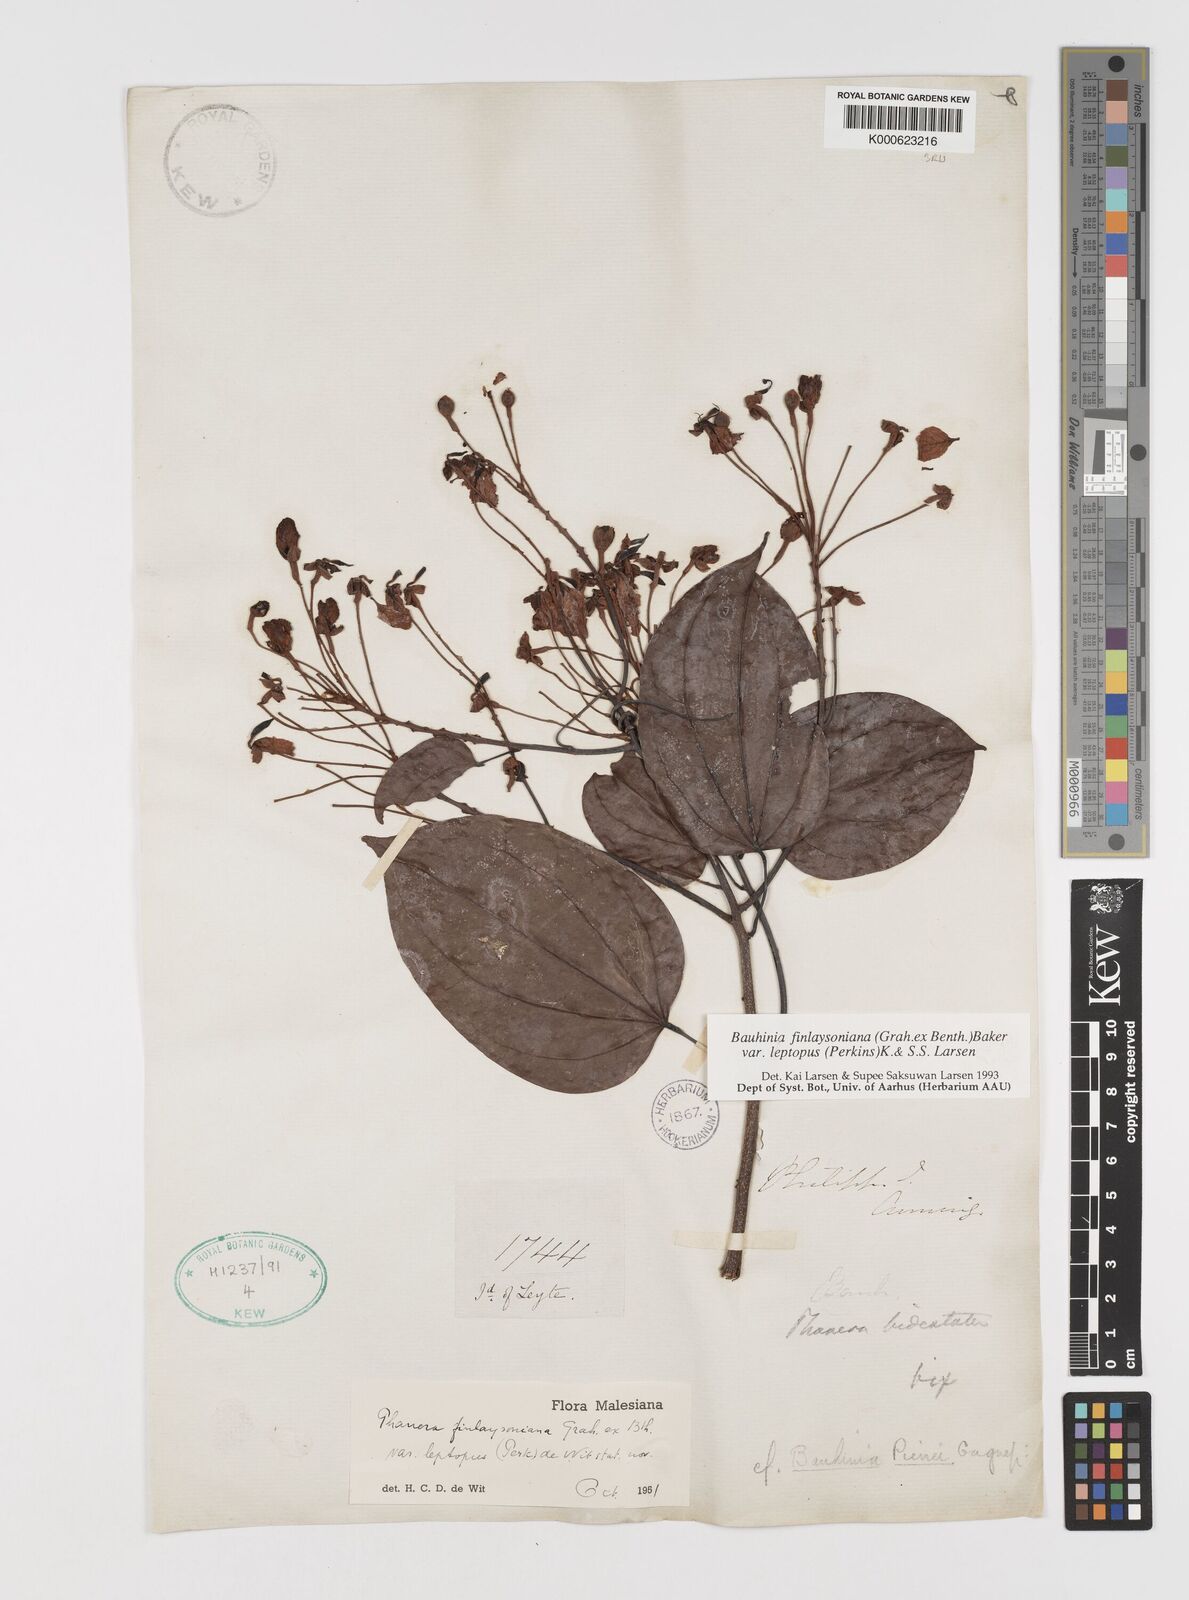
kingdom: Plantae
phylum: Tracheophyta
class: Magnoliopsida
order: Fabales
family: Fabaceae
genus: Phanera
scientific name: Phanera finlaysoniana
